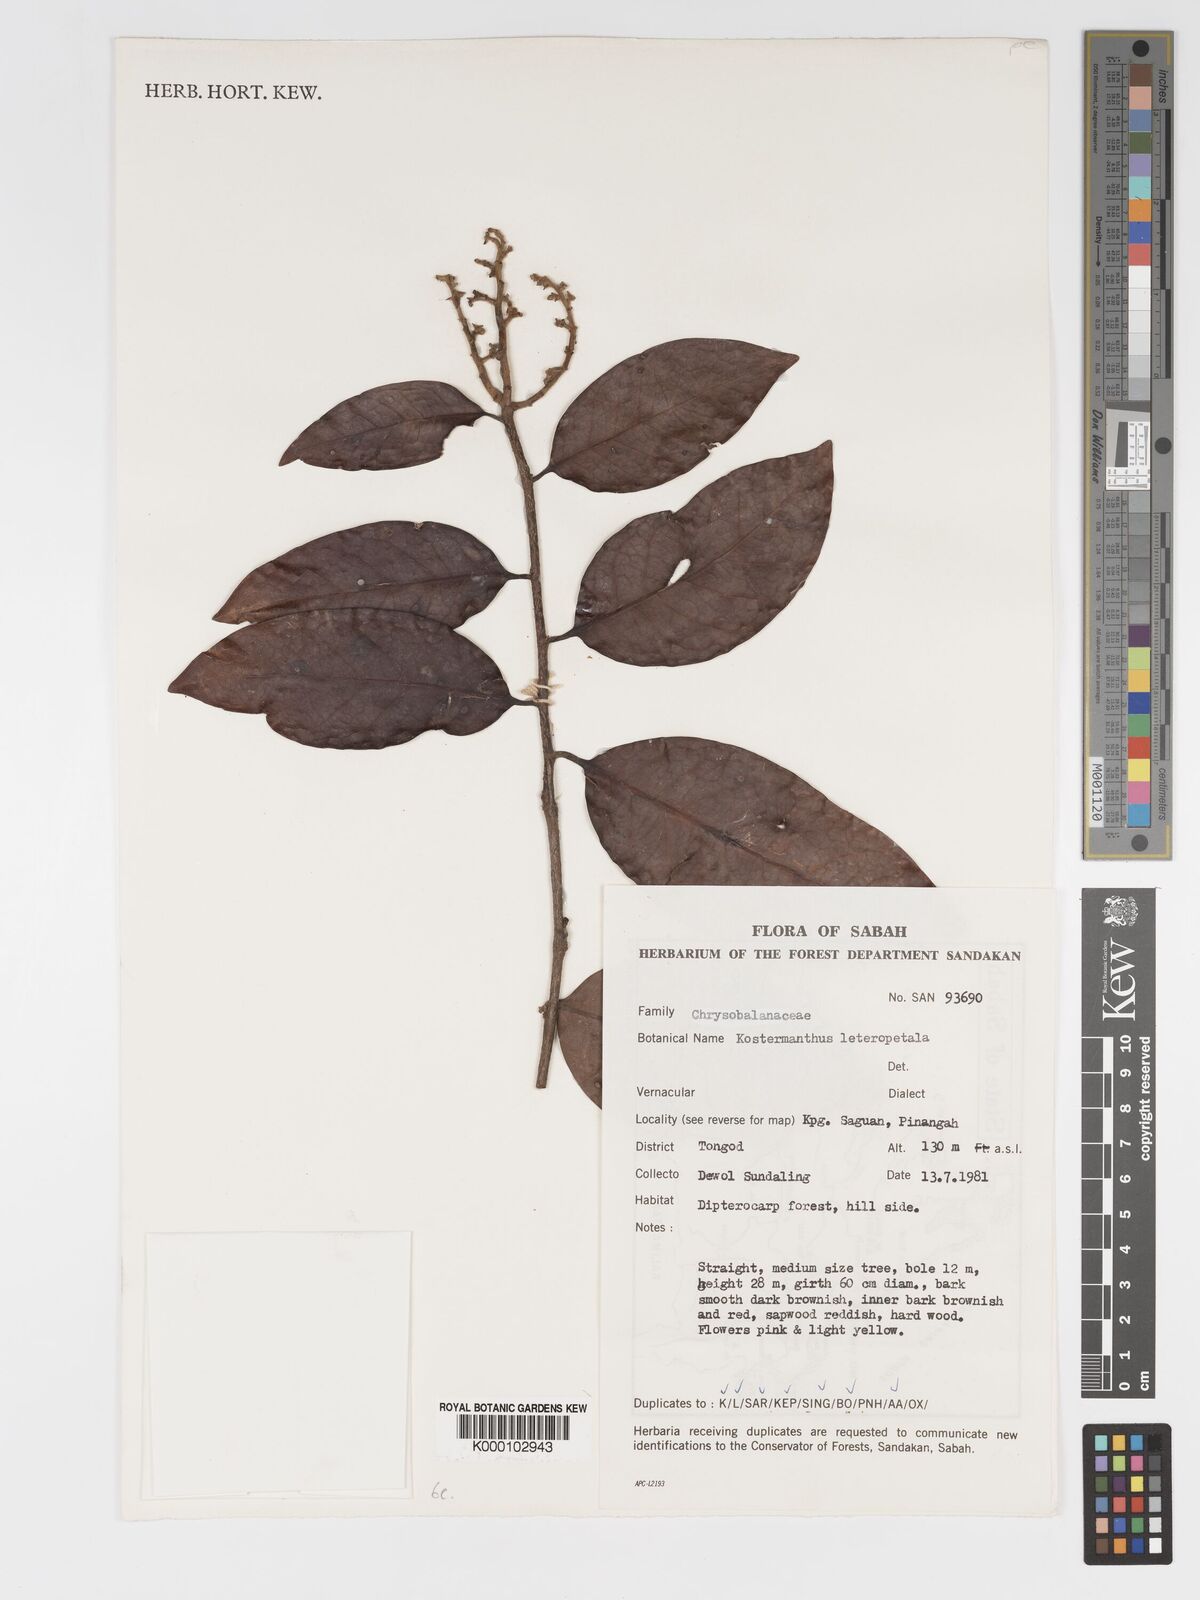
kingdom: Plantae
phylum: Tracheophyta
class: Magnoliopsida
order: Malpighiales
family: Chrysobalanaceae
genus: Kostermanthus
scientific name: Kostermanthus heteropetalus
